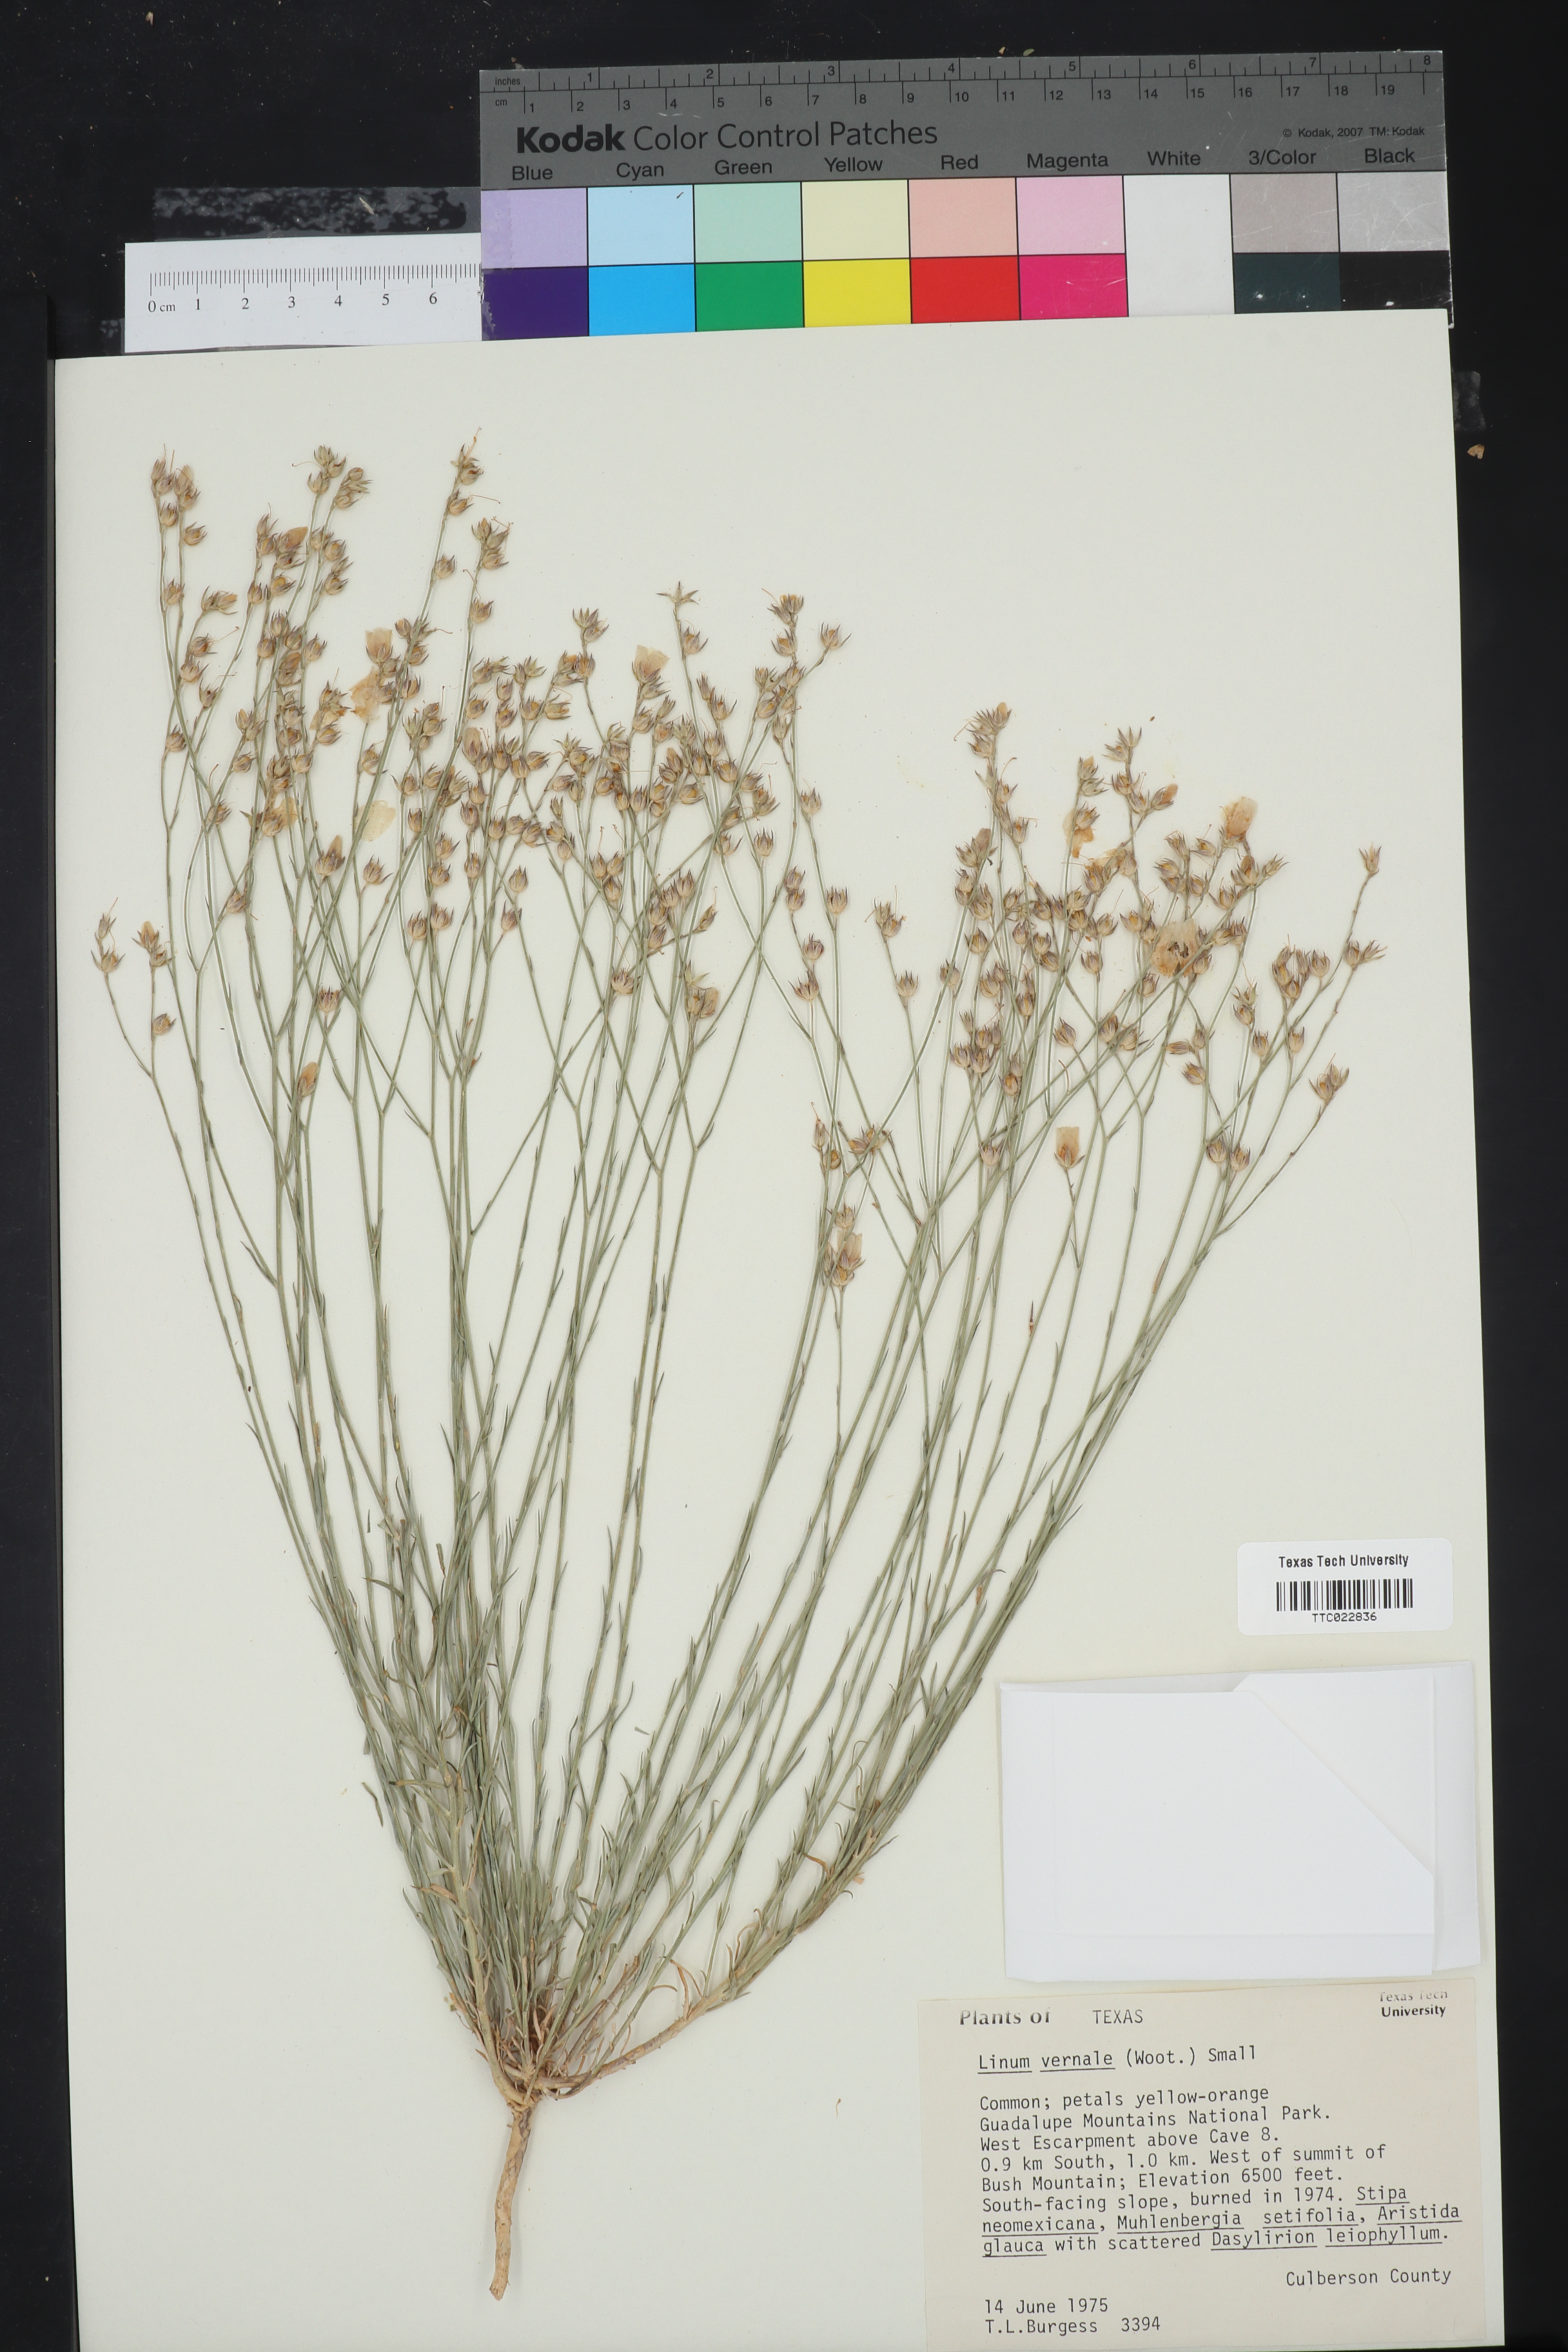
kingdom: Plantae
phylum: Tracheophyta
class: Magnoliopsida
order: Malpighiales
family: Linaceae
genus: Linum
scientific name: Linum vernale
